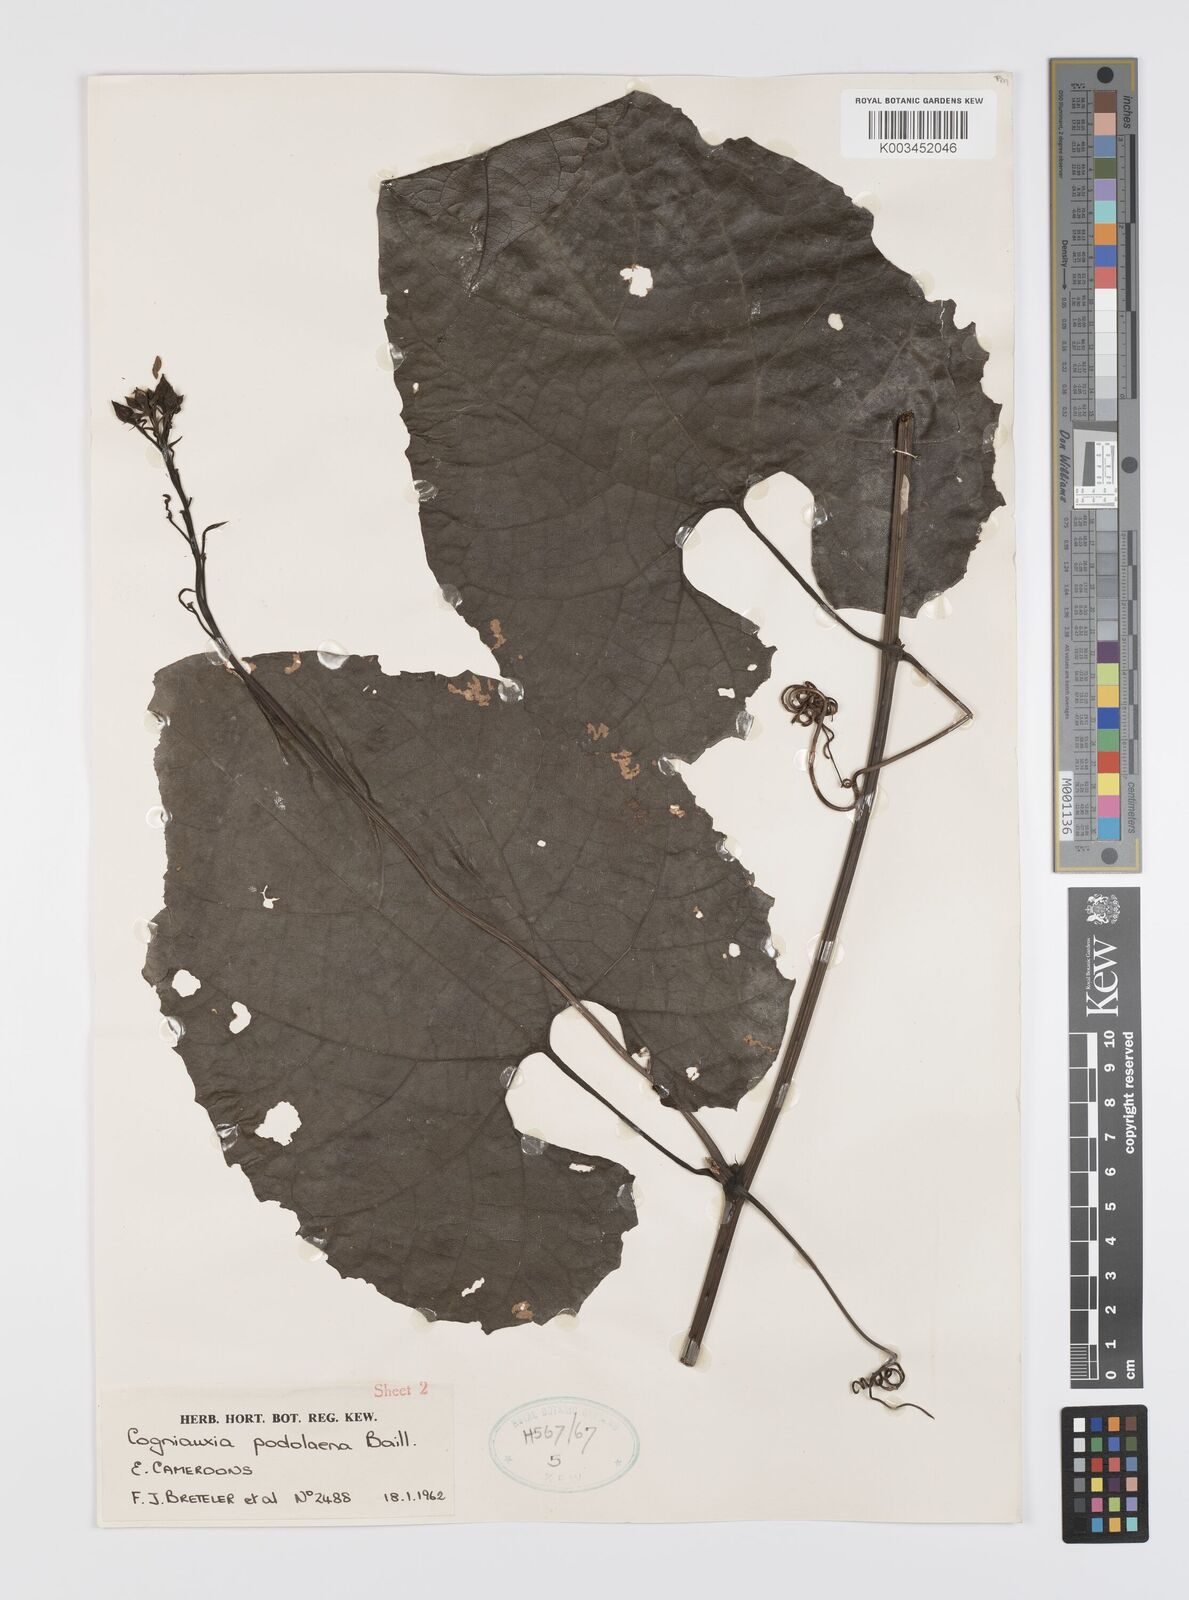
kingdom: Plantae
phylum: Tracheophyta
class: Magnoliopsida
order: Cucurbitales
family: Cucurbitaceae
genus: Cogniauxia
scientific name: Cogniauxia podolaena
